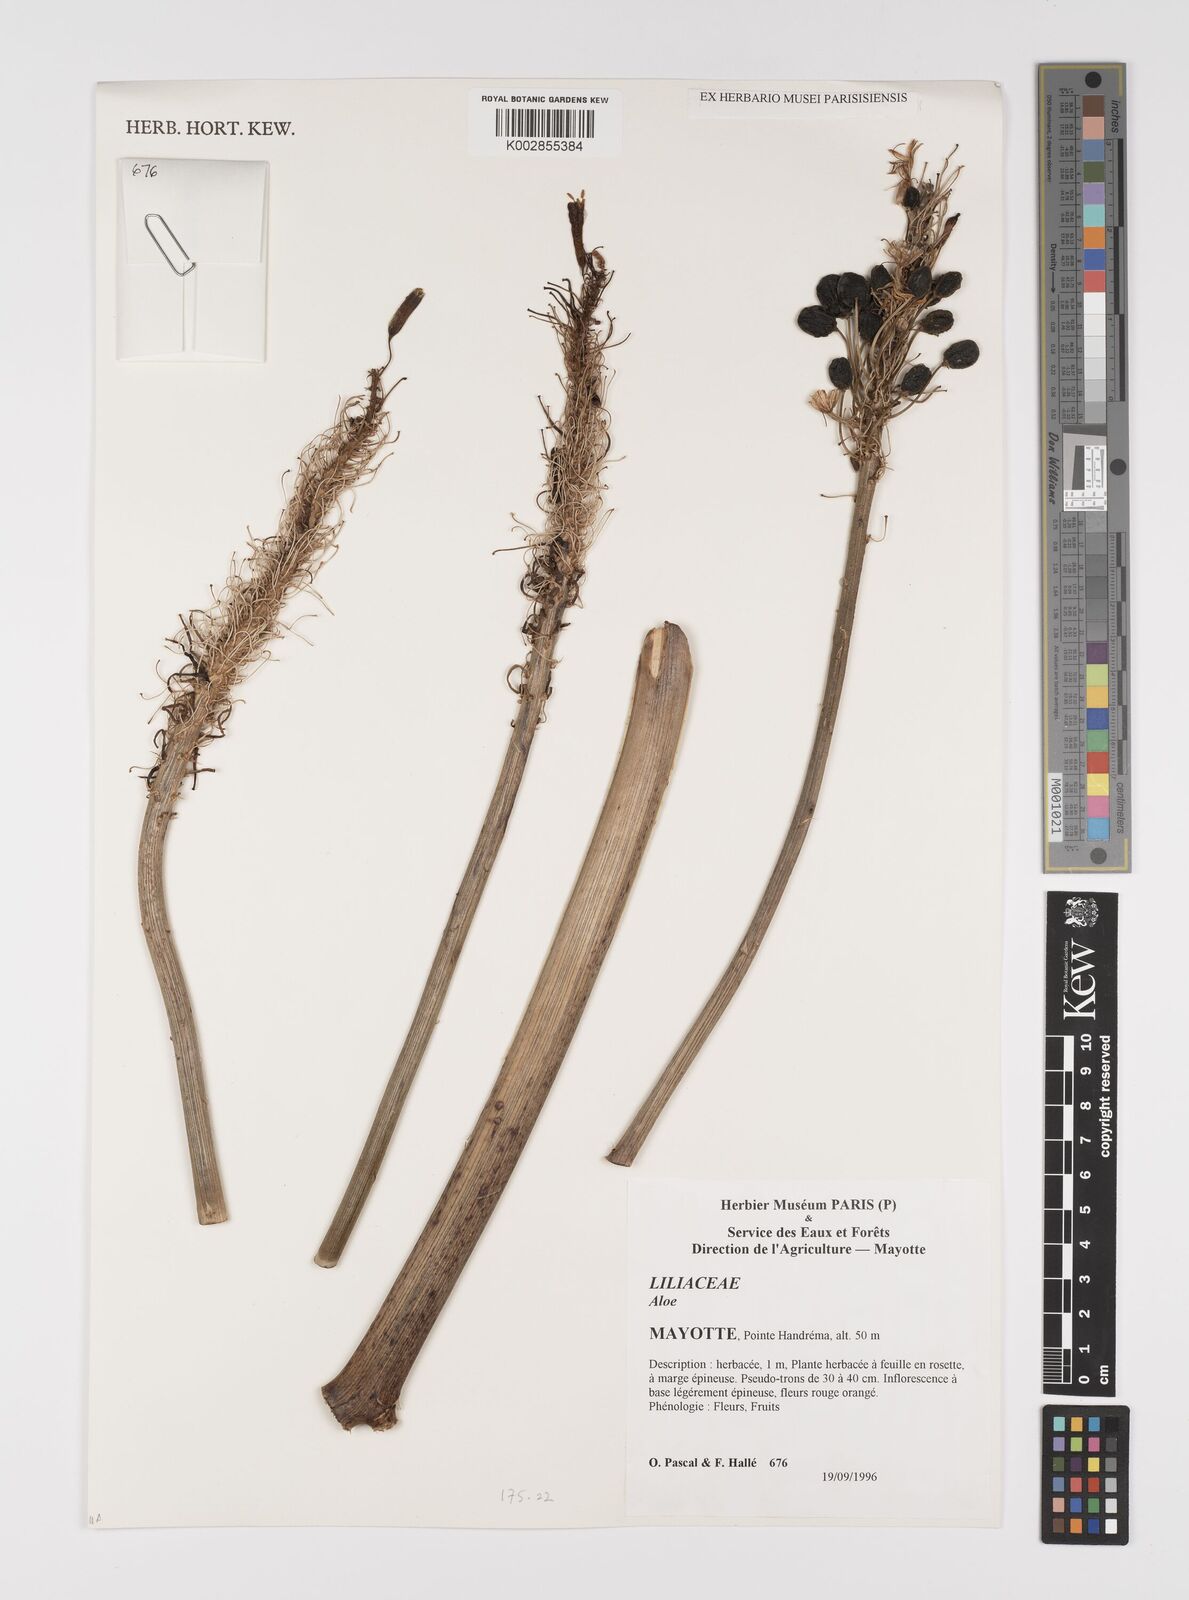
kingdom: Plantae
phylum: Tracheophyta
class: Liliopsida
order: Asparagales
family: Asphodelaceae
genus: Aloe
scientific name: Aloe
